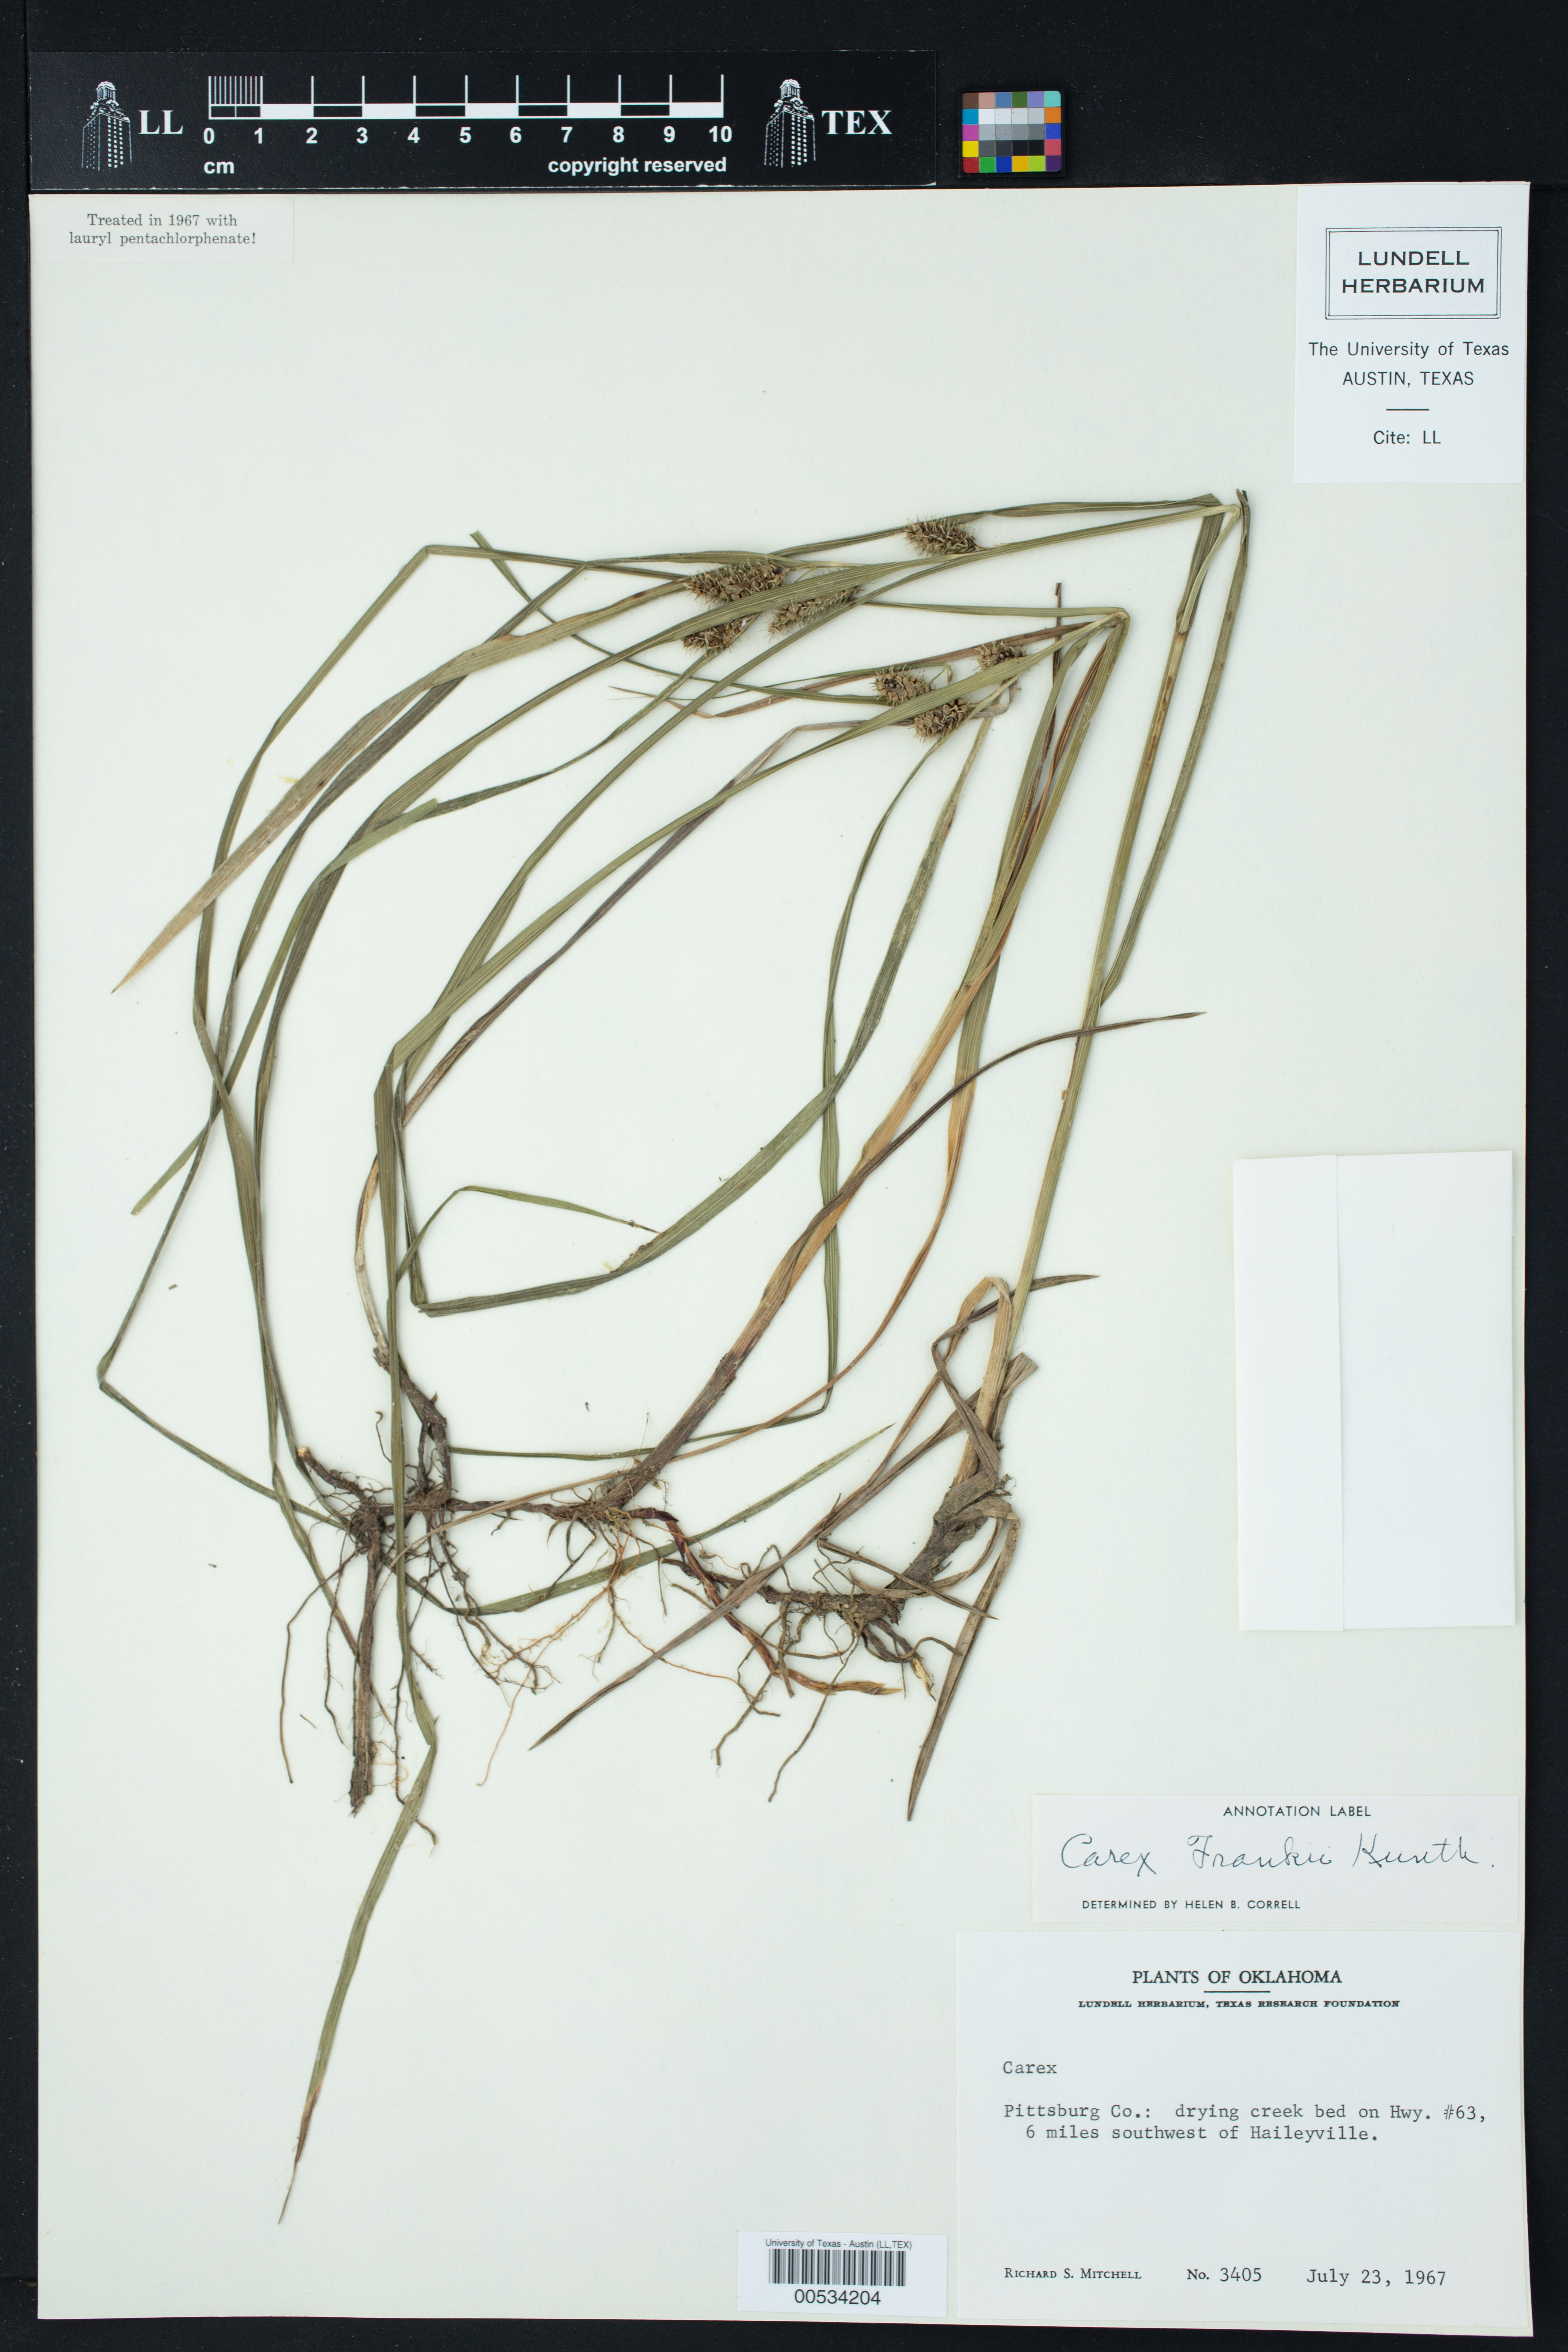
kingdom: Plantae
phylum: Tracheophyta
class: Liliopsida
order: Poales
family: Cyperaceae
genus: Carex
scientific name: Carex frankii
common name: Frank's sedge
